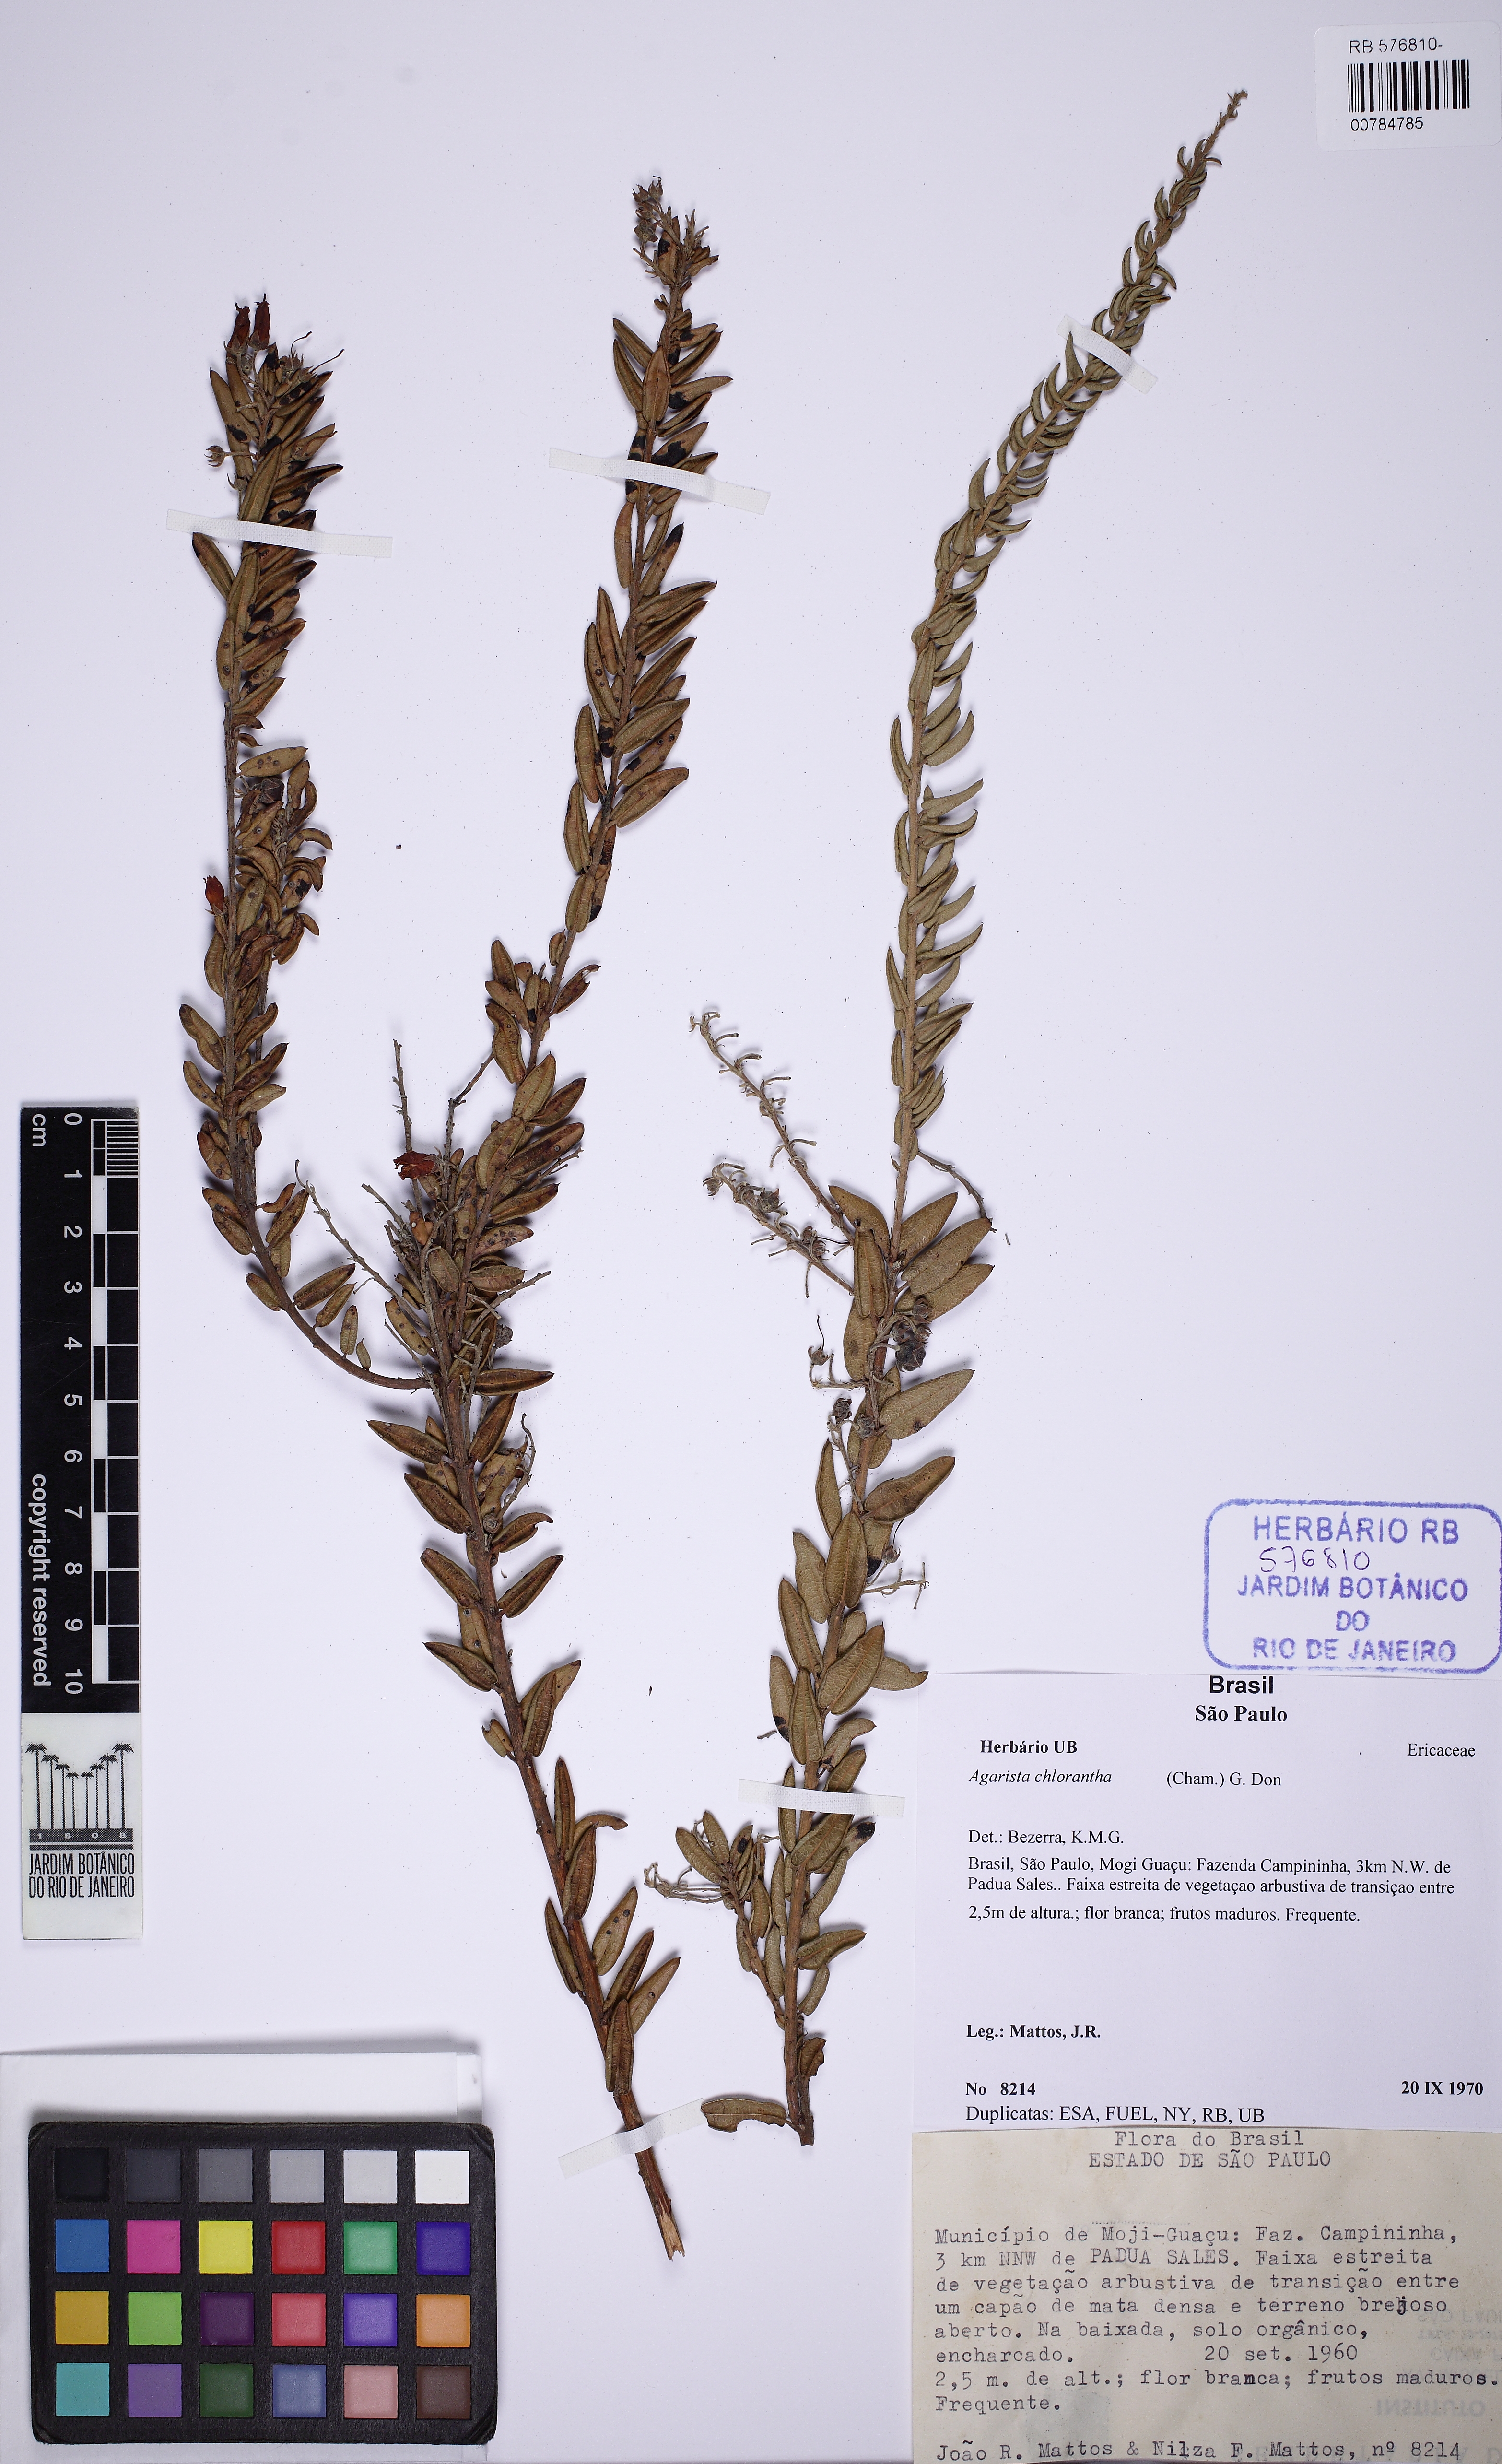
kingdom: Plantae
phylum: Tracheophyta
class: Magnoliopsida
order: Ericales
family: Ericaceae
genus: Agarista
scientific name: Agarista chlorantha
